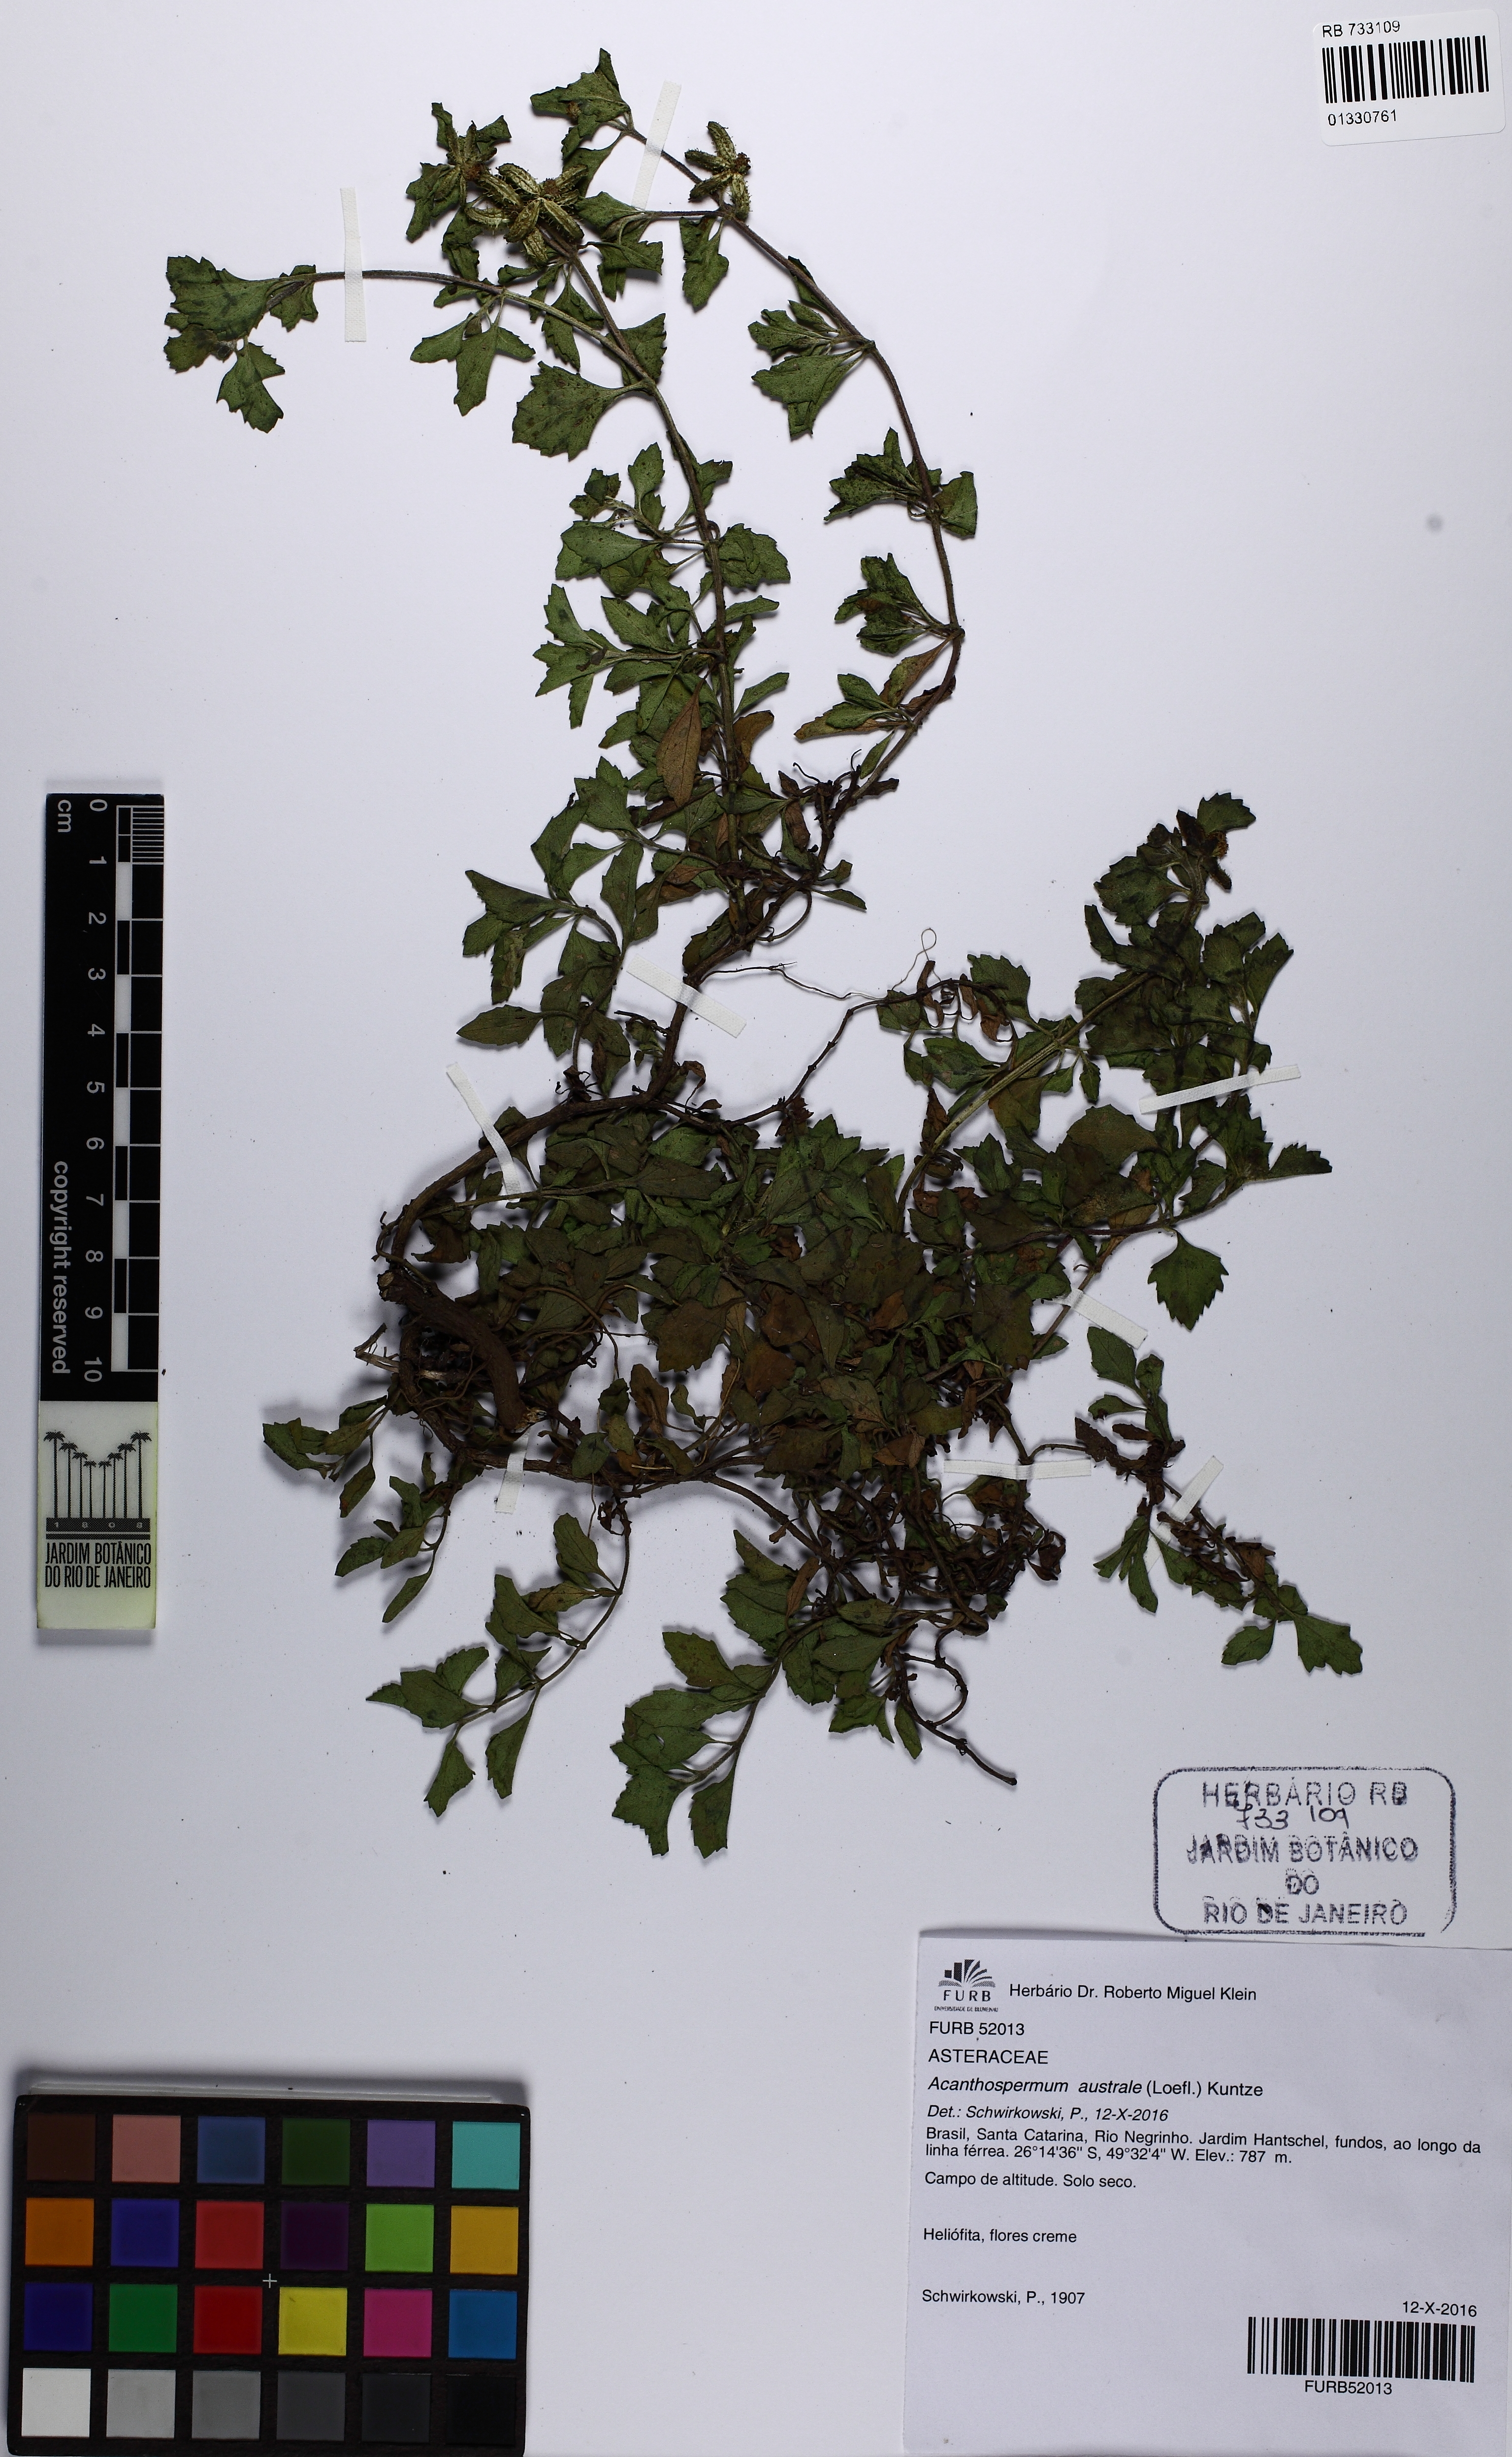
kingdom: Plantae
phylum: Tracheophyta
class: Magnoliopsida
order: Asterales
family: Asteraceae
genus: Acanthospermum
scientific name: Acanthospermum australe
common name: Paraguayan starbur
